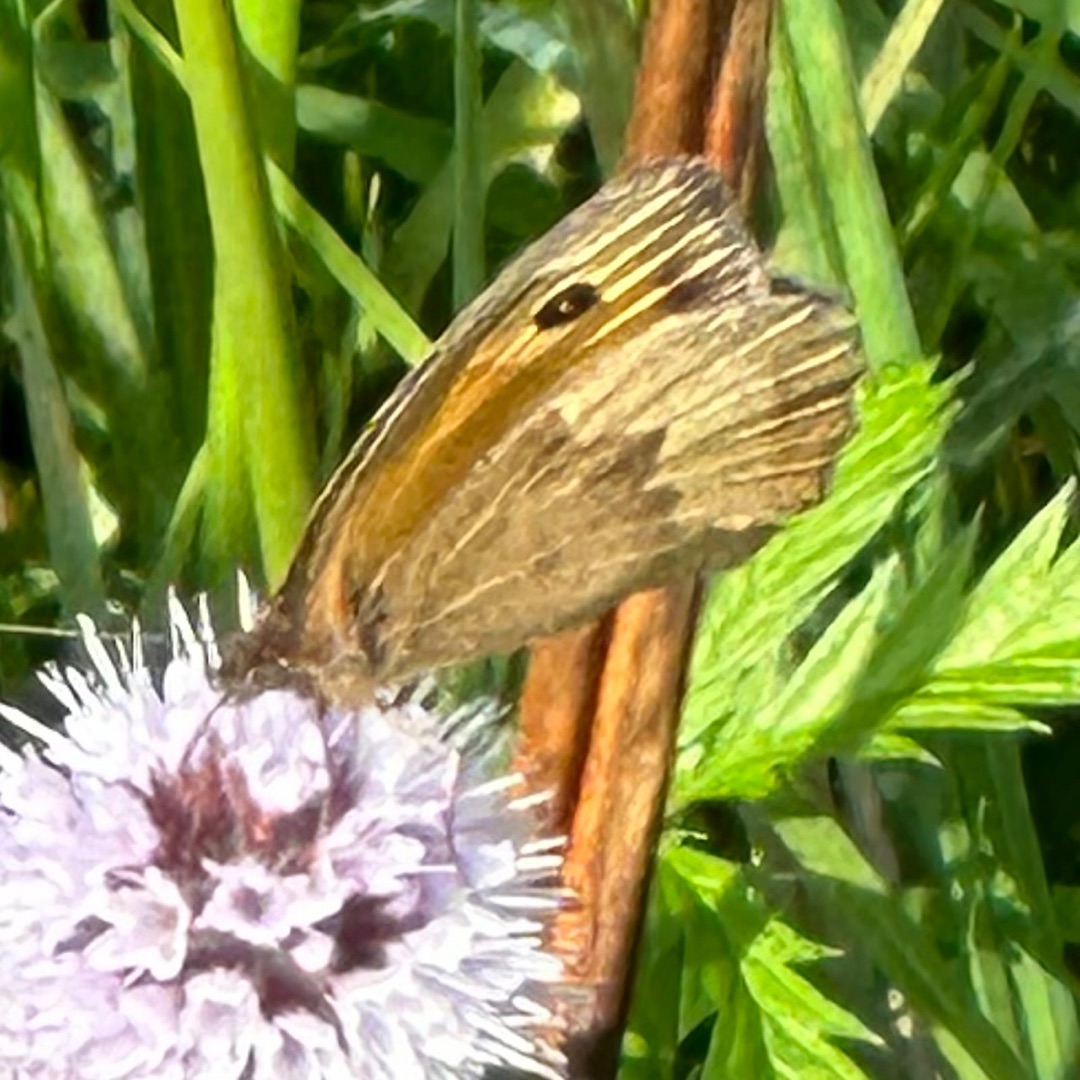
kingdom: Animalia
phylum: Arthropoda
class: Insecta
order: Lepidoptera
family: Nymphalidae
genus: Maniola
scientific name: Maniola jurtina
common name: Græsrandøje
